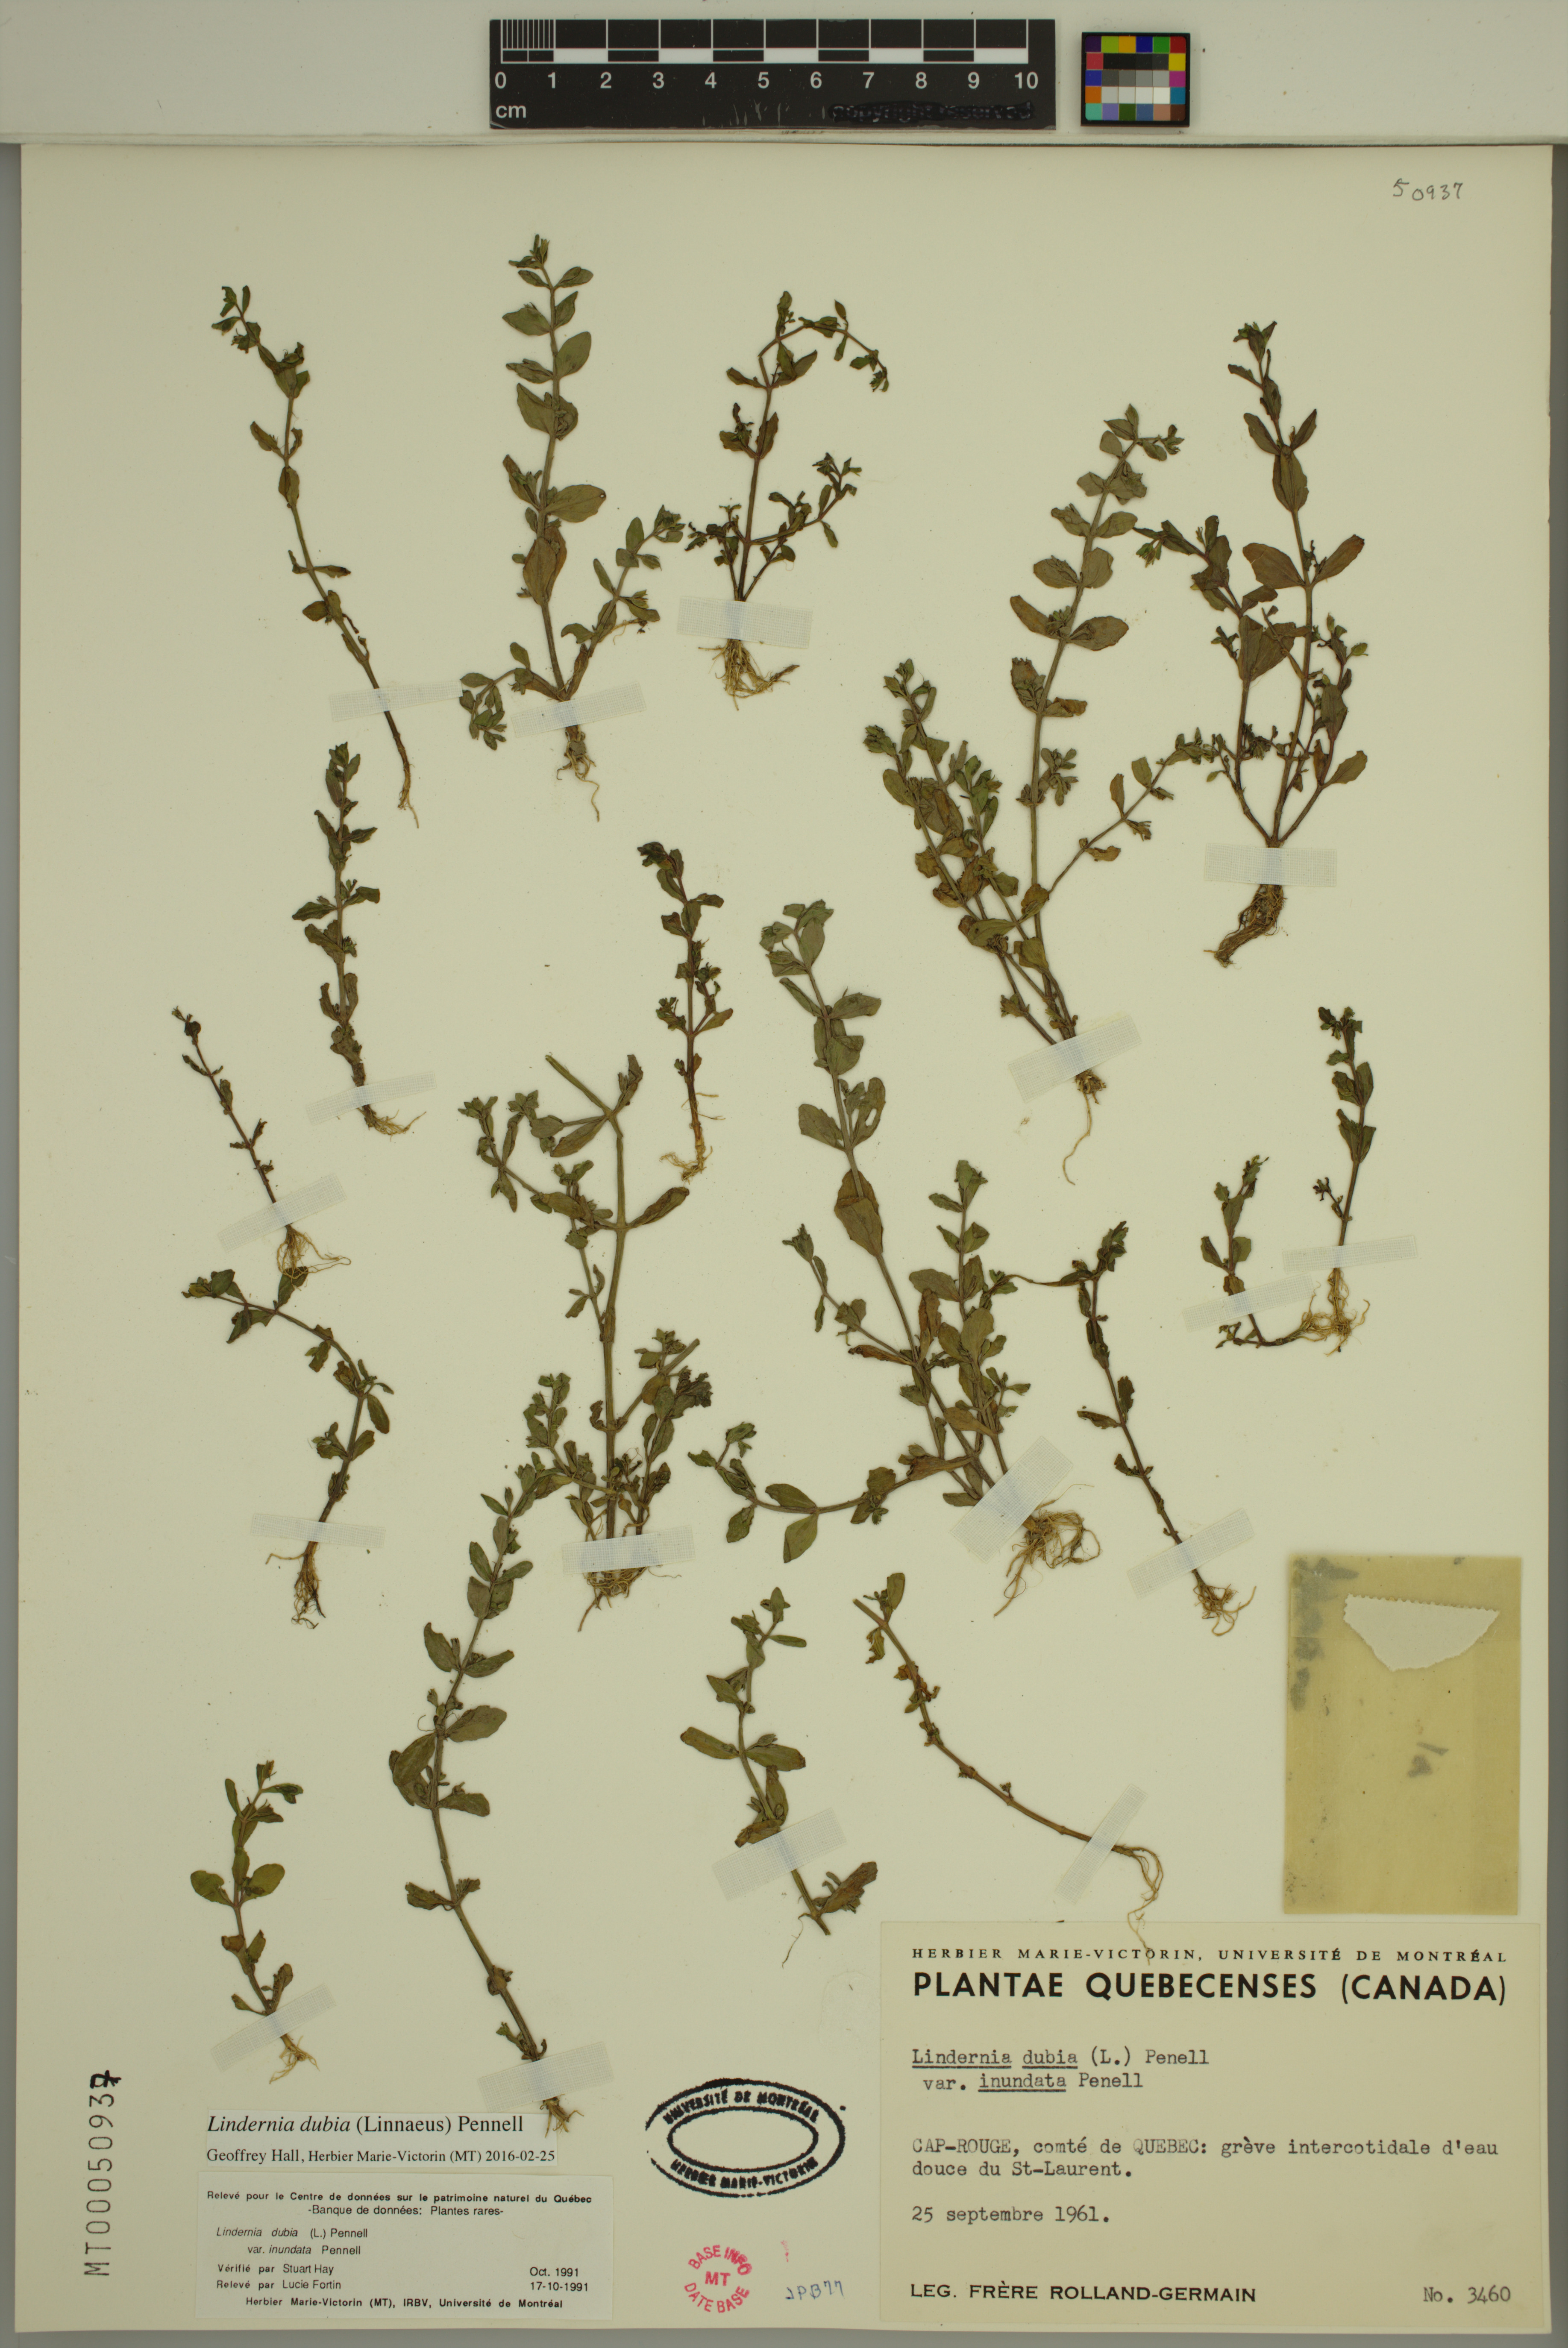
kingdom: Plantae
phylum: Tracheophyta
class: Magnoliopsida
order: Lamiales
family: Linderniaceae
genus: Lindernia
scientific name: Lindernia dubia
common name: Annual false pimpernel
